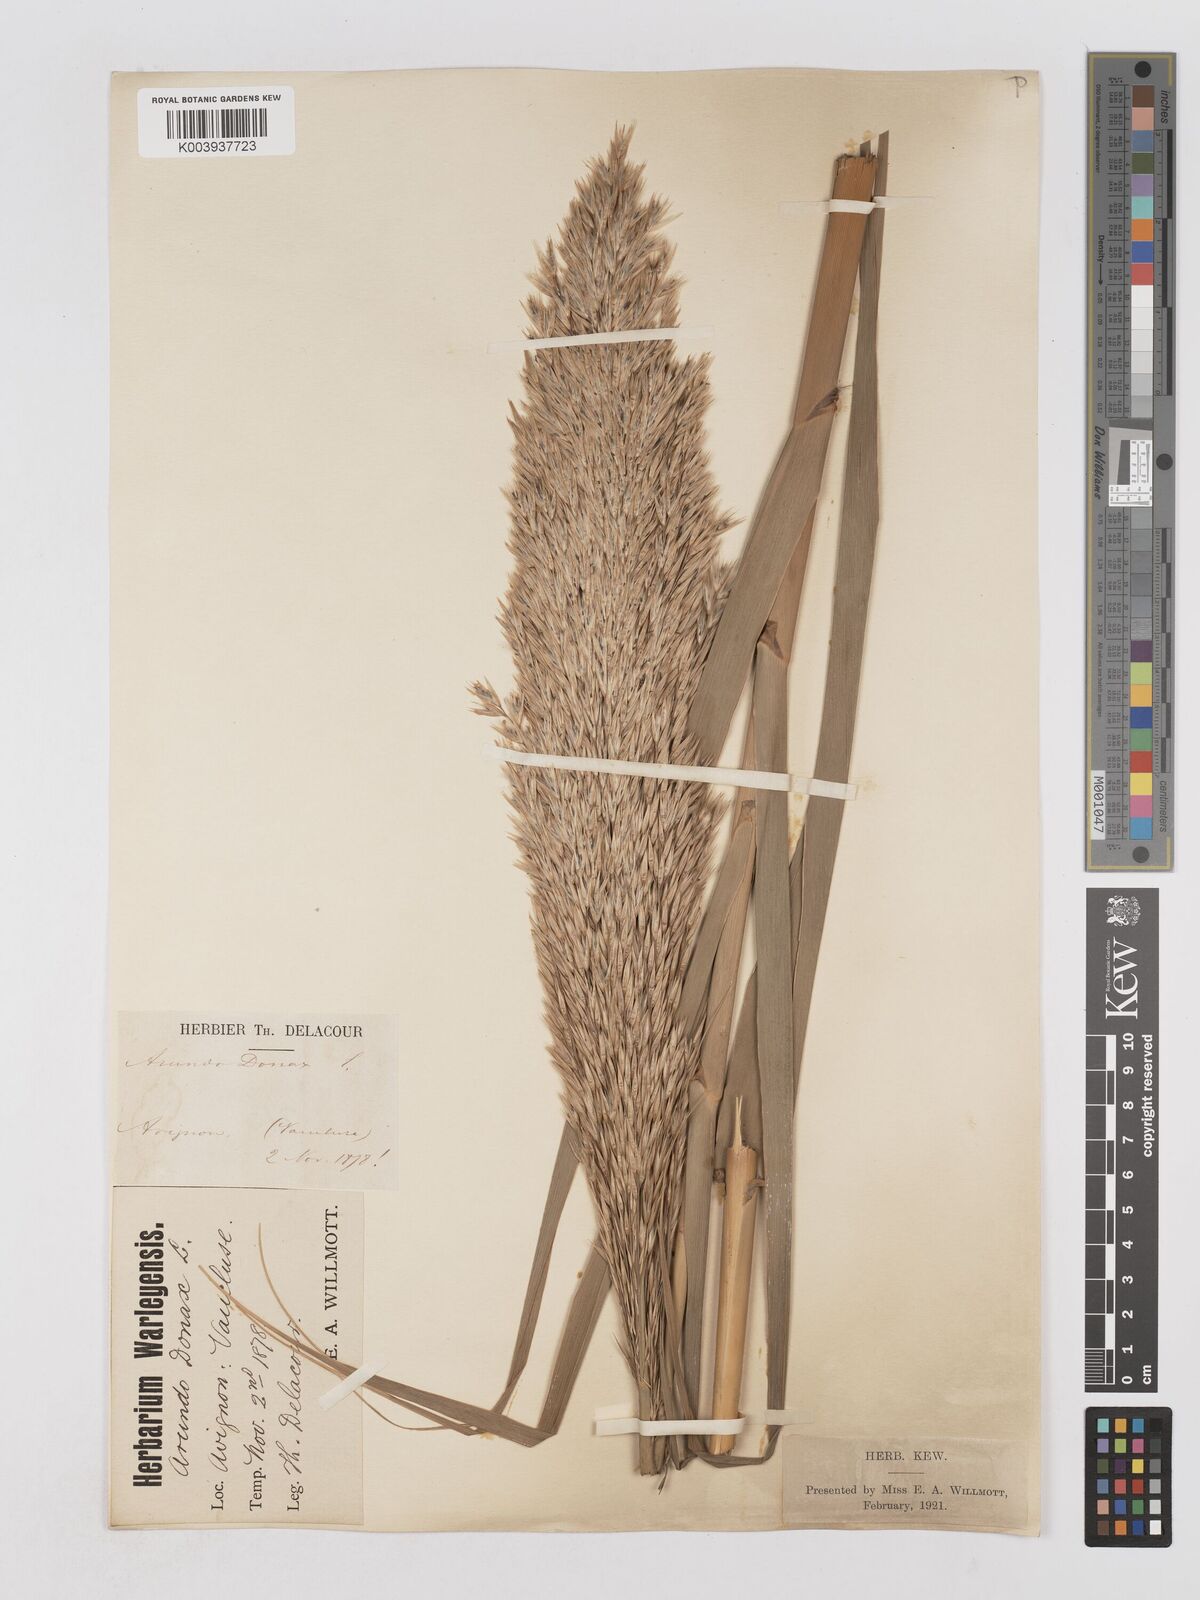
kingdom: Plantae
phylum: Tracheophyta
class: Liliopsida
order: Poales
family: Poaceae
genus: Arundo
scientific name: Arundo donax
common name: Giant reed
